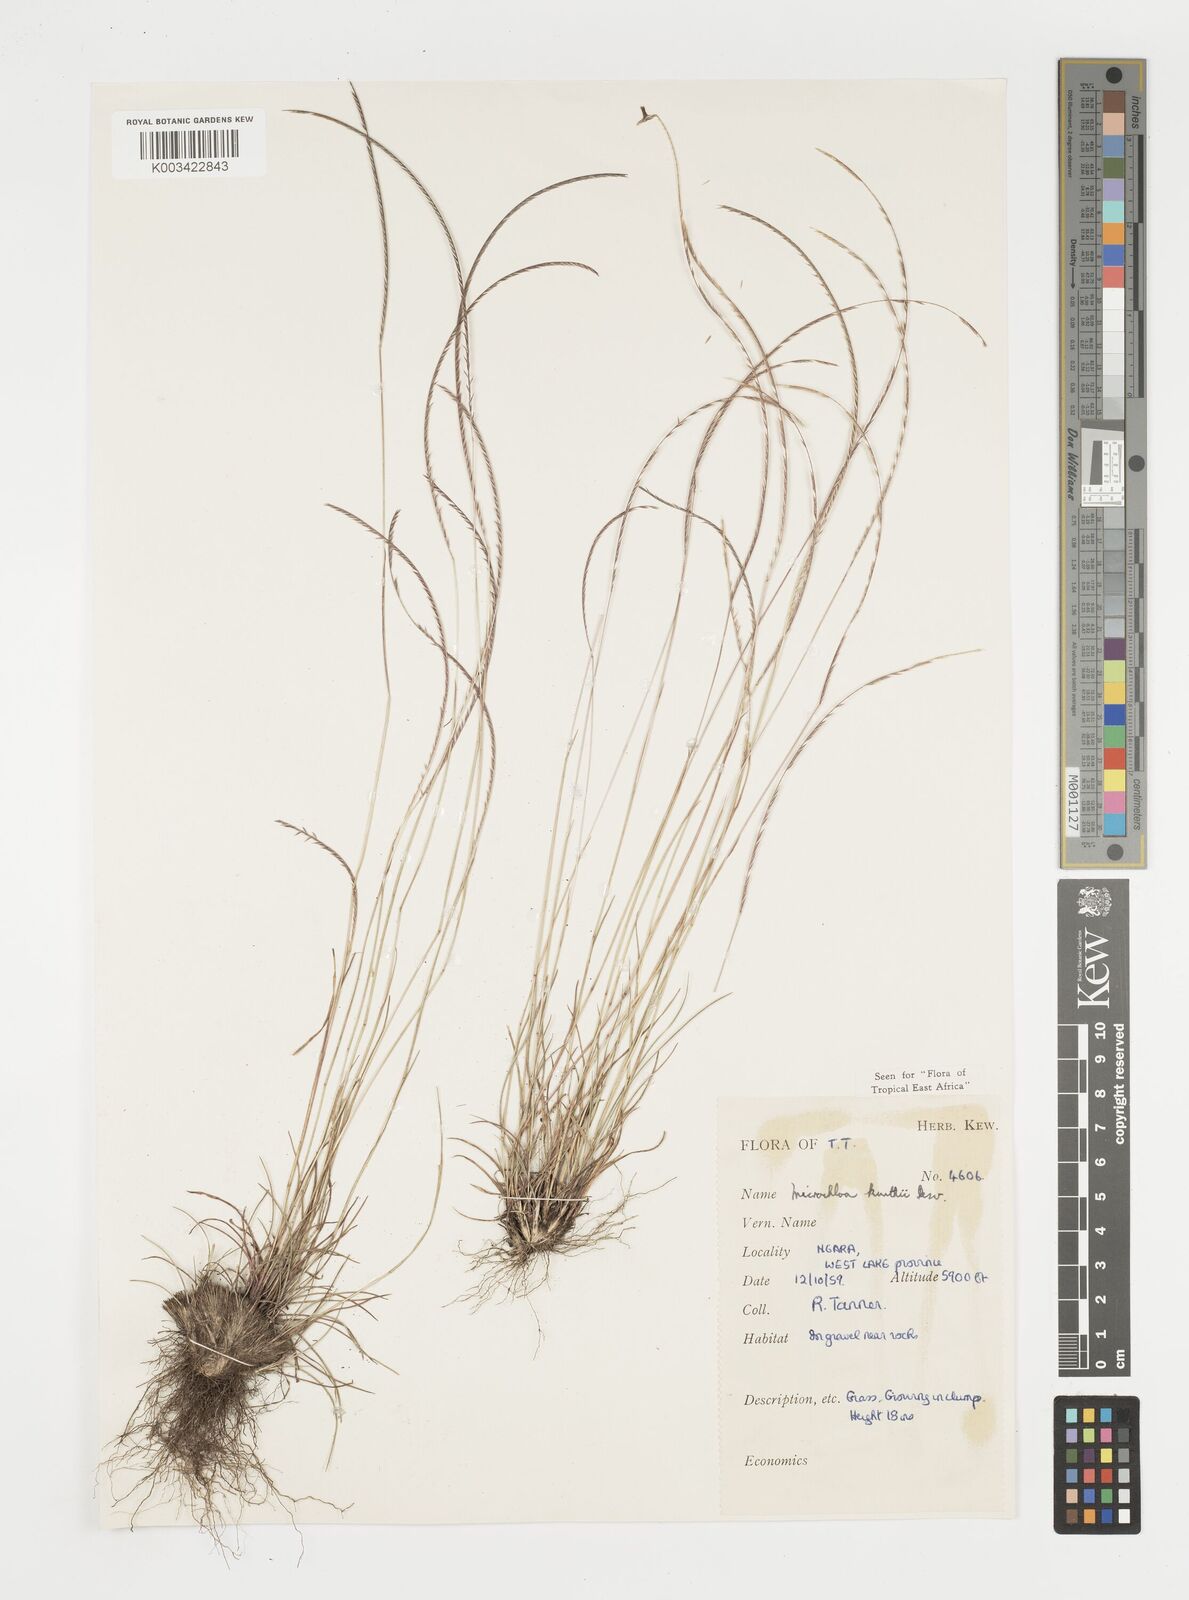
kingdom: Plantae
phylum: Tracheophyta
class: Liliopsida
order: Poales
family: Poaceae
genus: Microchloa
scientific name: Microchloa kunthii
